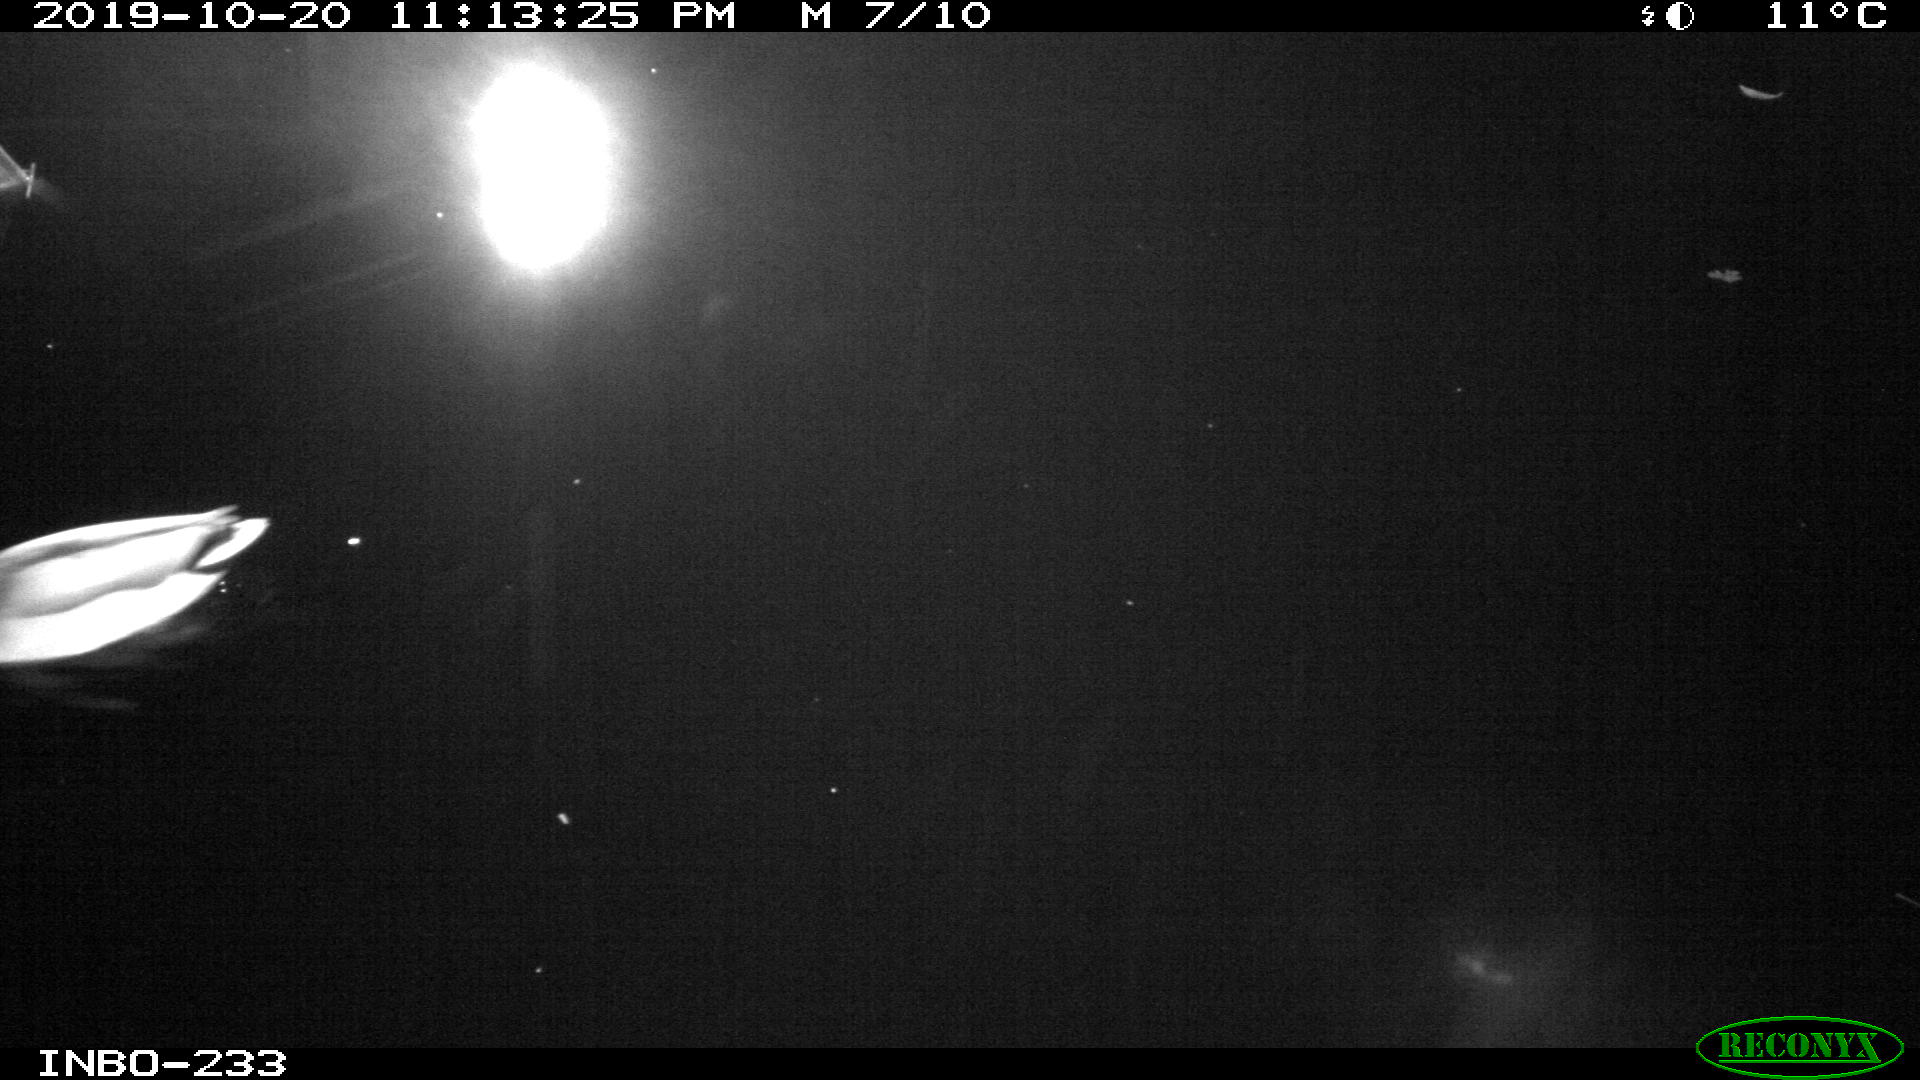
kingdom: Animalia
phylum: Chordata
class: Aves
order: Anseriformes
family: Anatidae
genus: Anas
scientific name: Anas platyrhynchos
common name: Mallard
